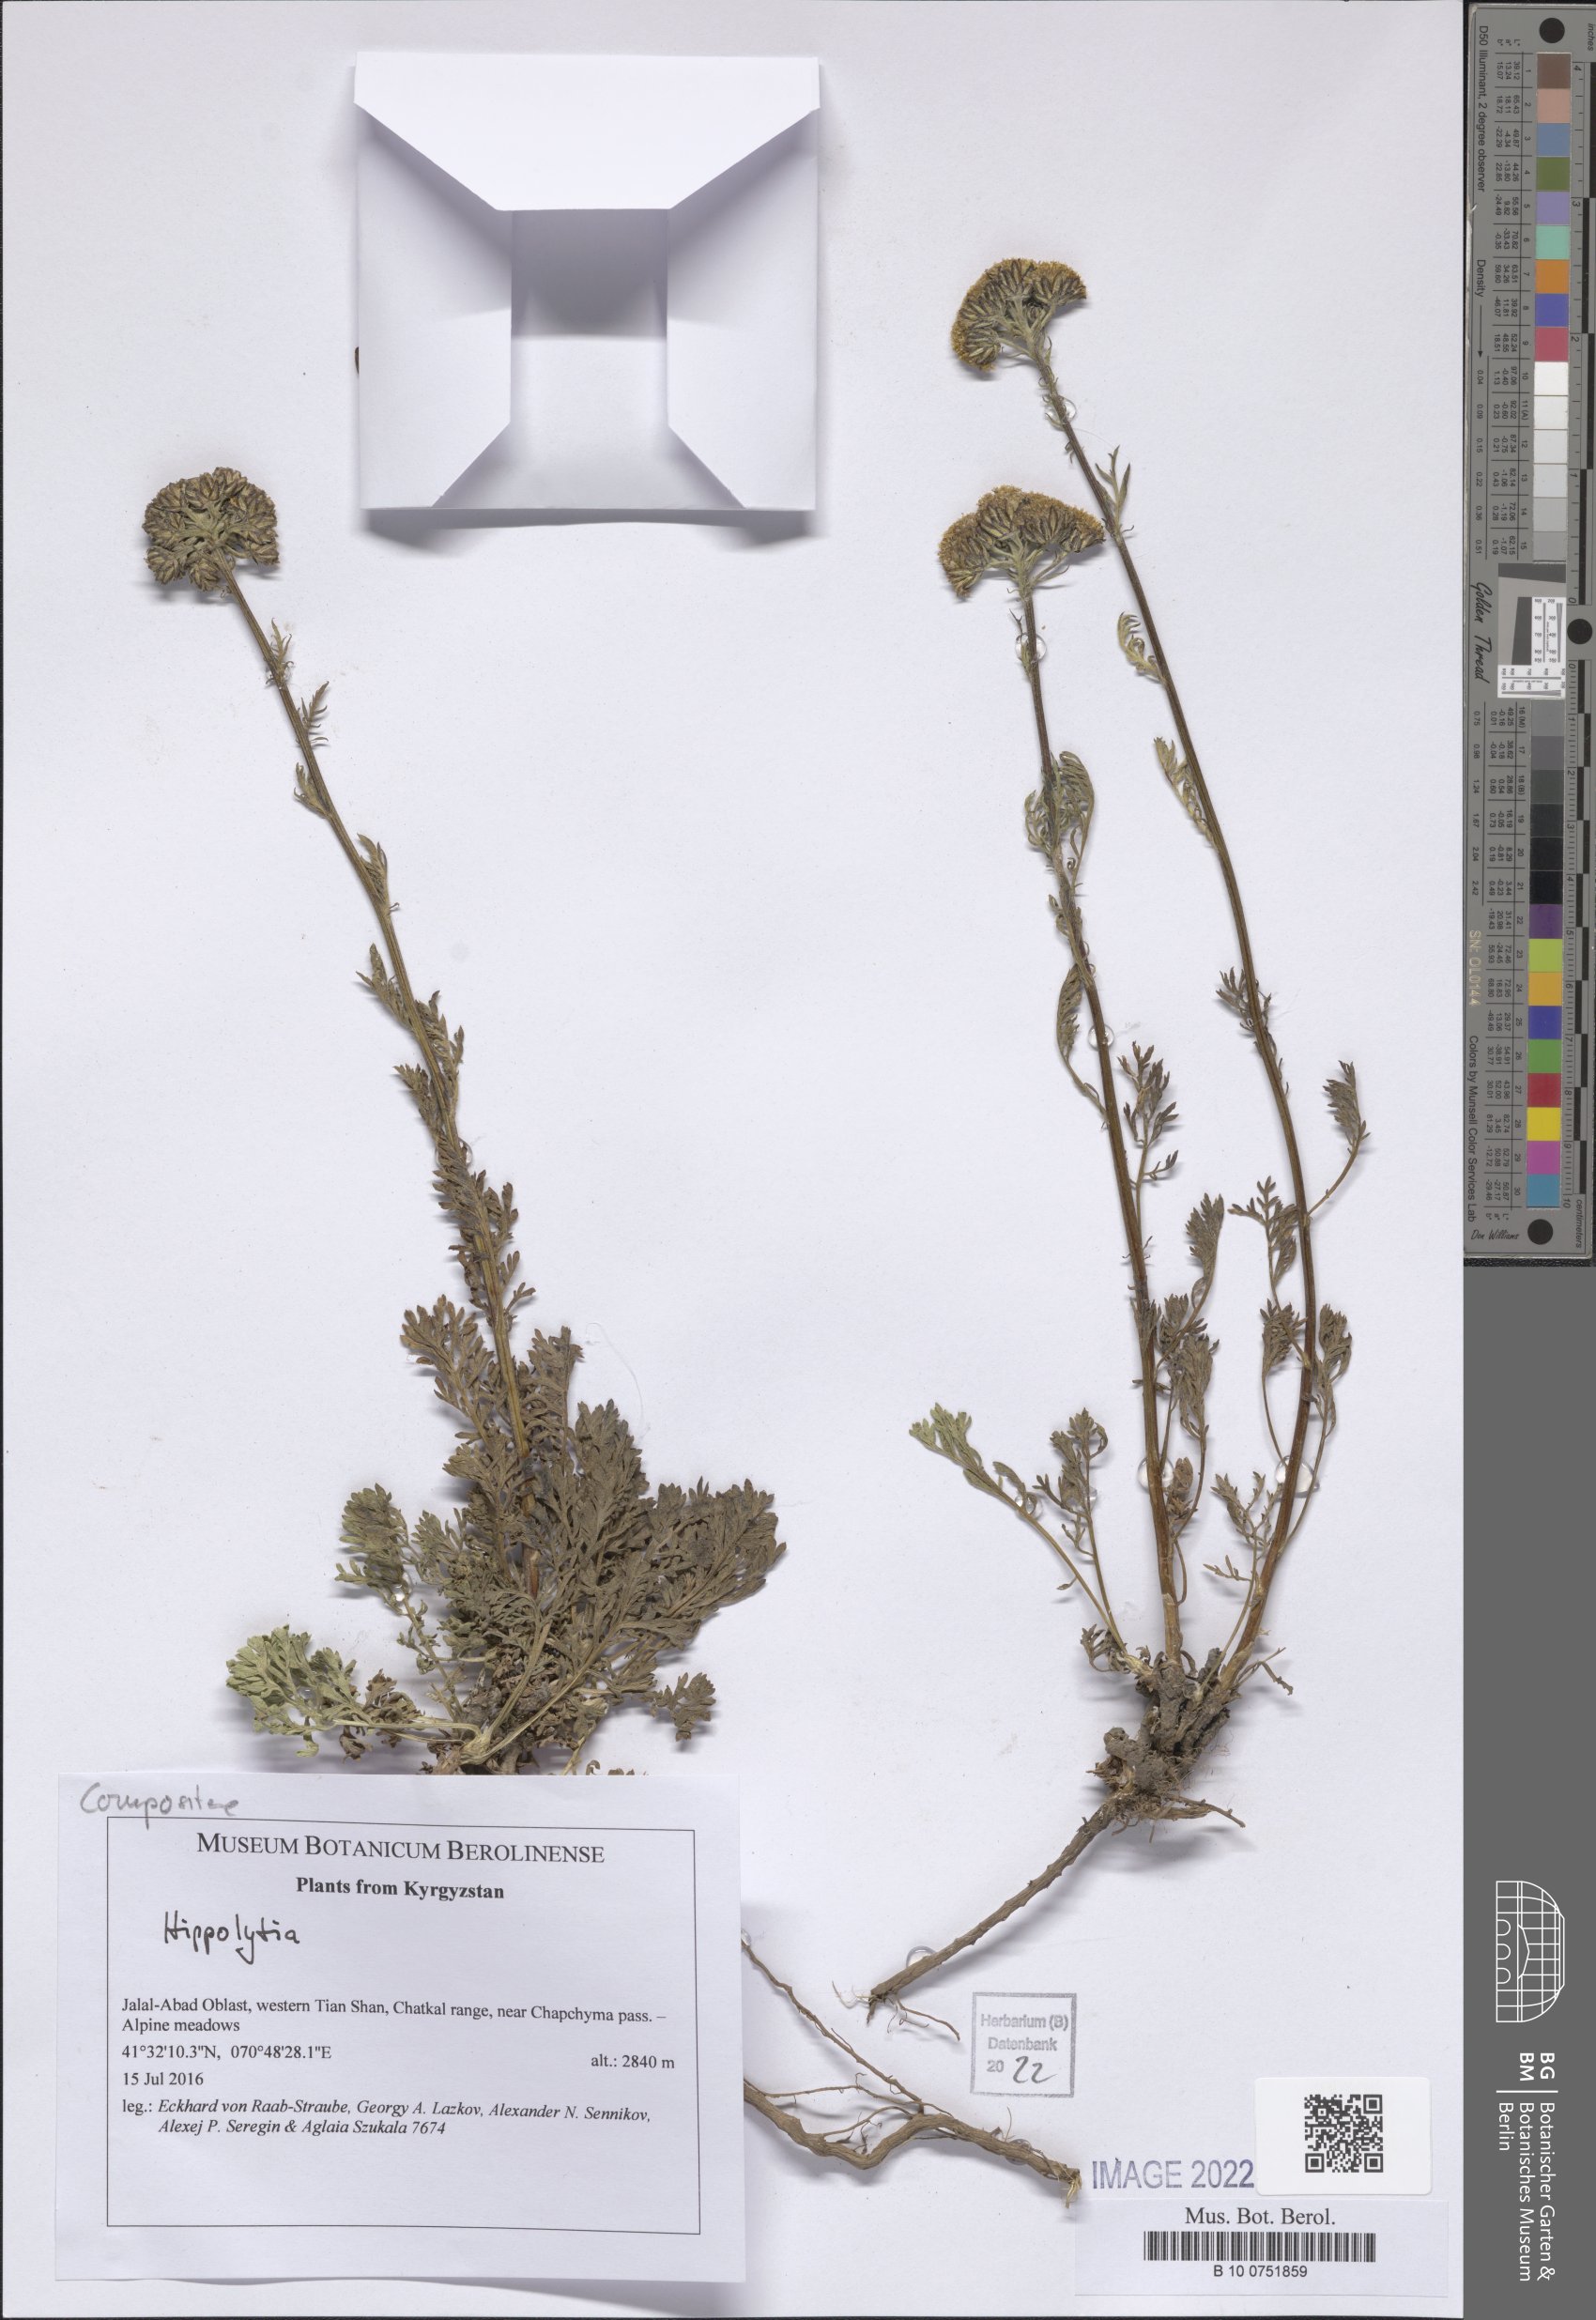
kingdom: Plantae
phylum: Tracheophyta
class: Magnoliopsida
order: Asterales
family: Asteraceae
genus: Hippolytia
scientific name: Hippolytia
